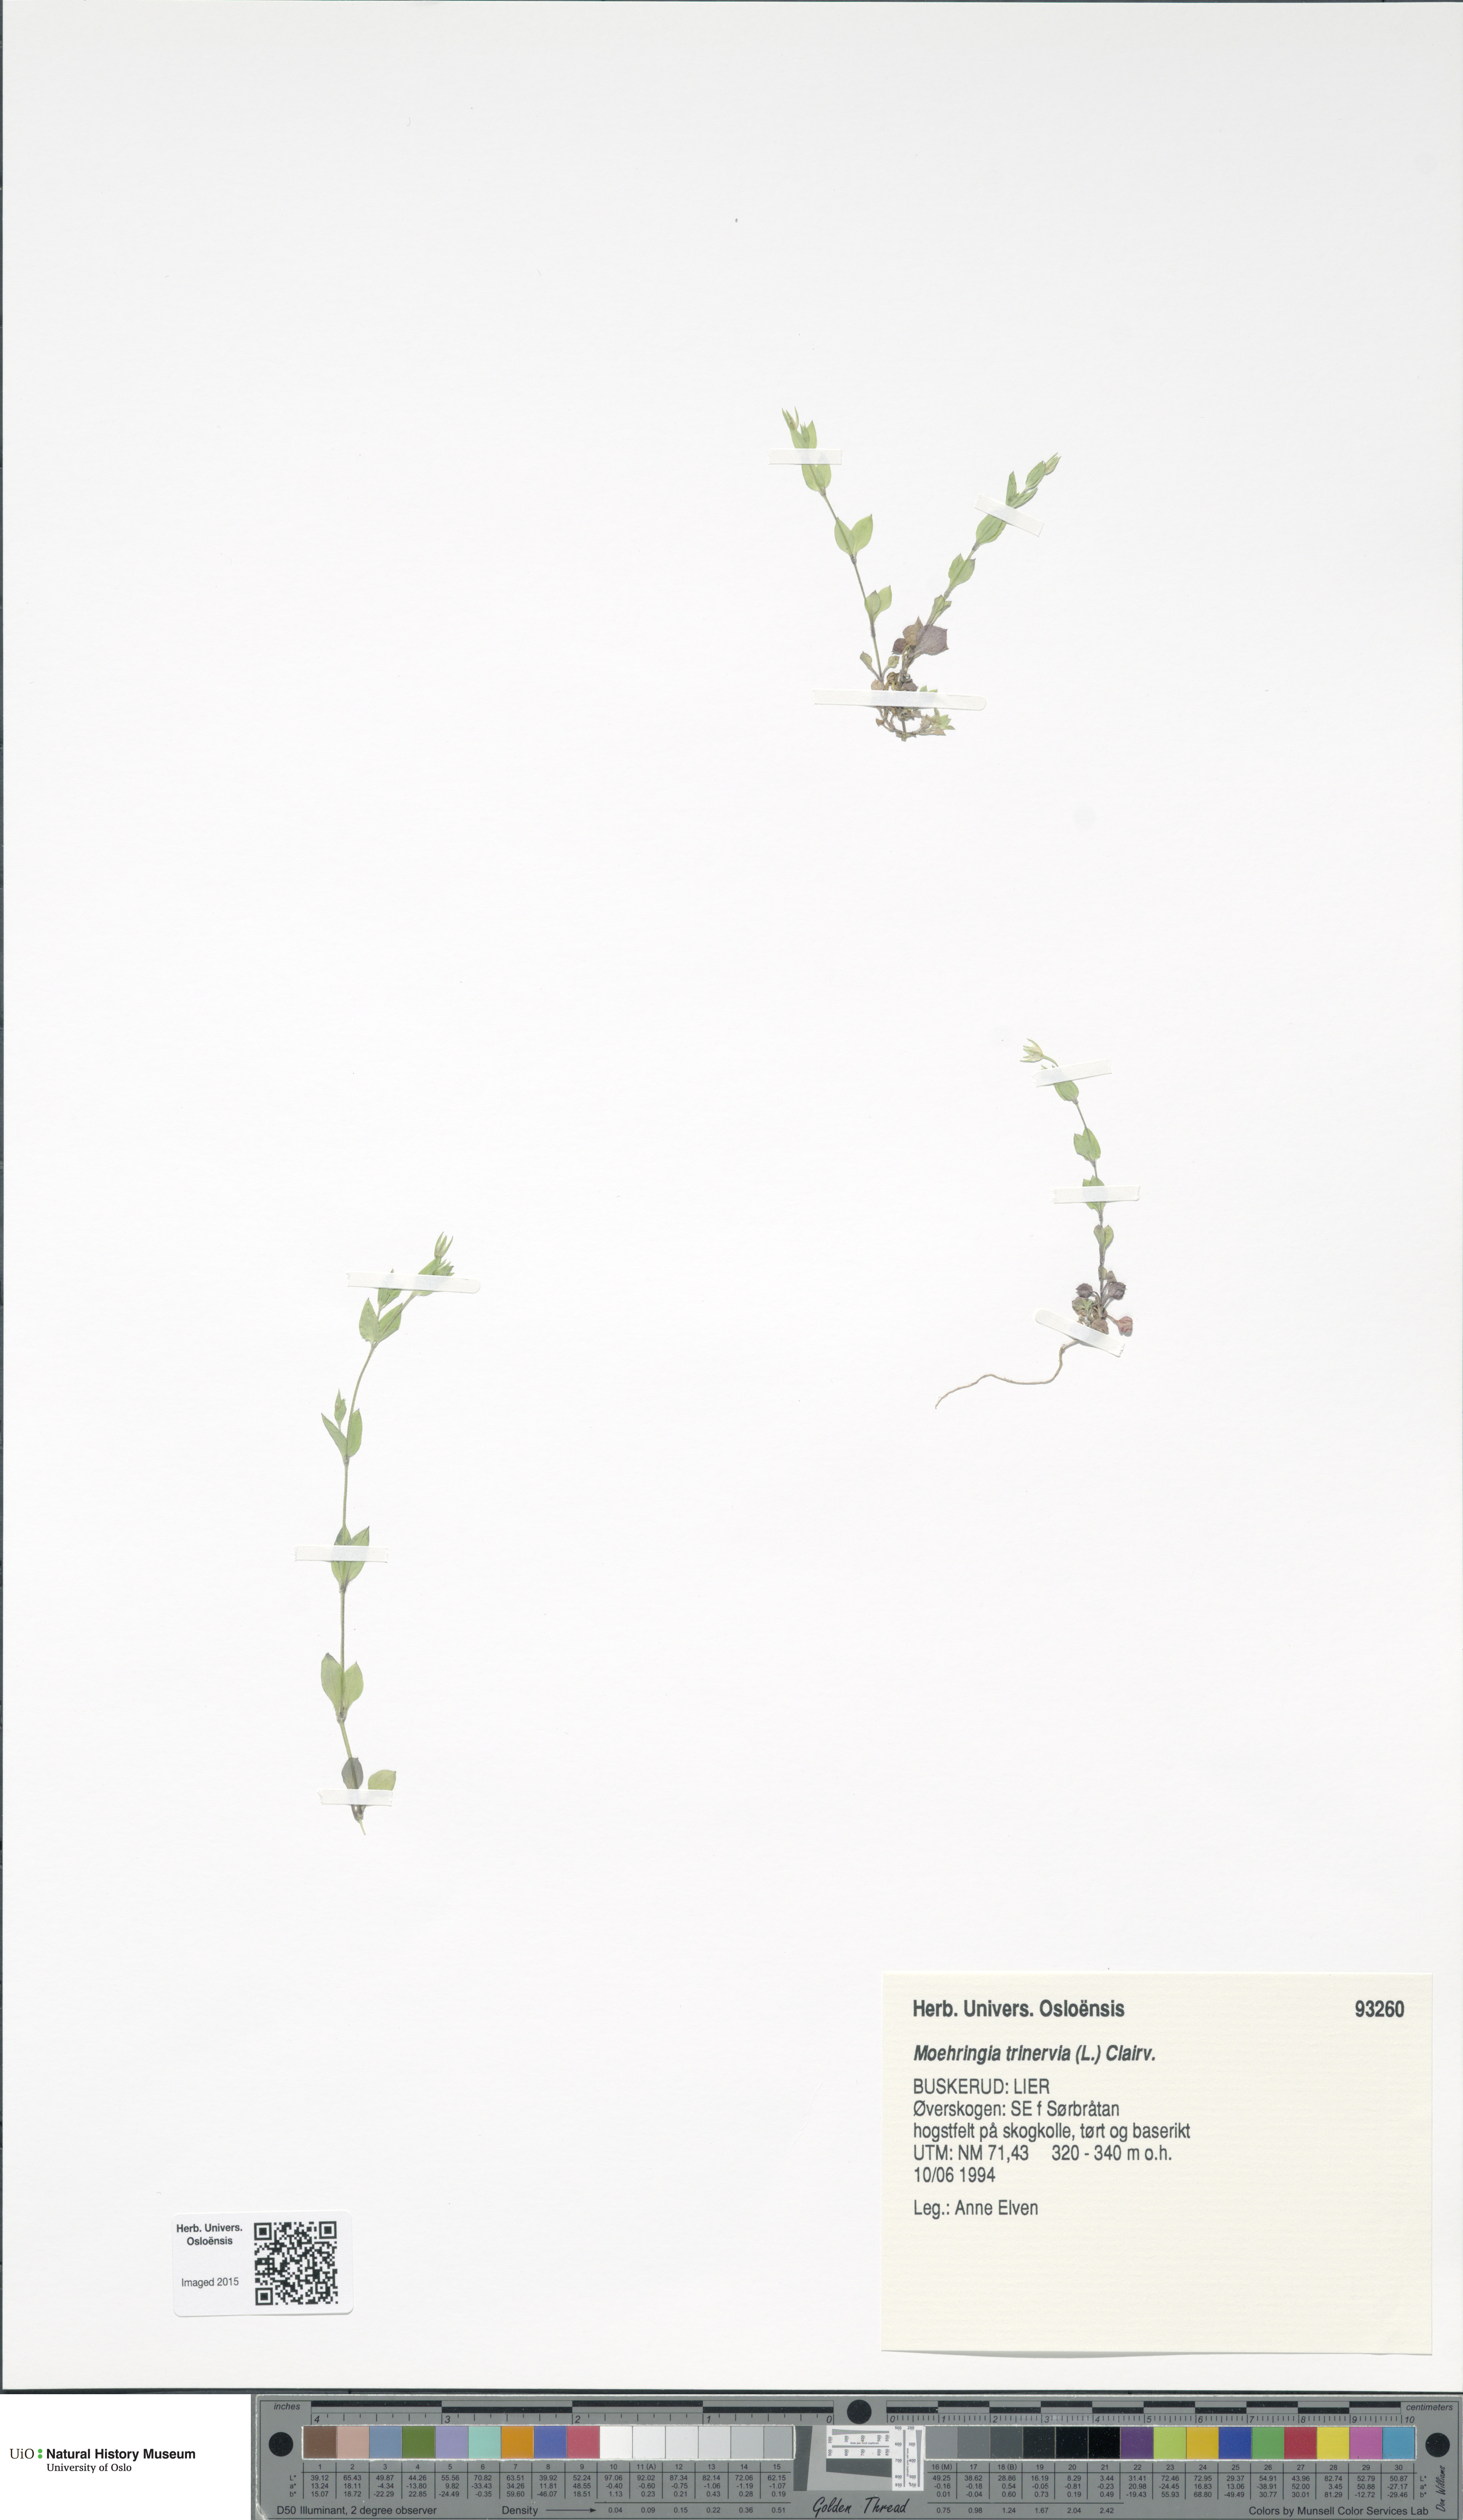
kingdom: Plantae
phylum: Tracheophyta
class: Magnoliopsida
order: Caryophyllales
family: Caryophyllaceae
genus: Moehringia
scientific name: Moehringia trinervia
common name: Three-nerved sandwort
